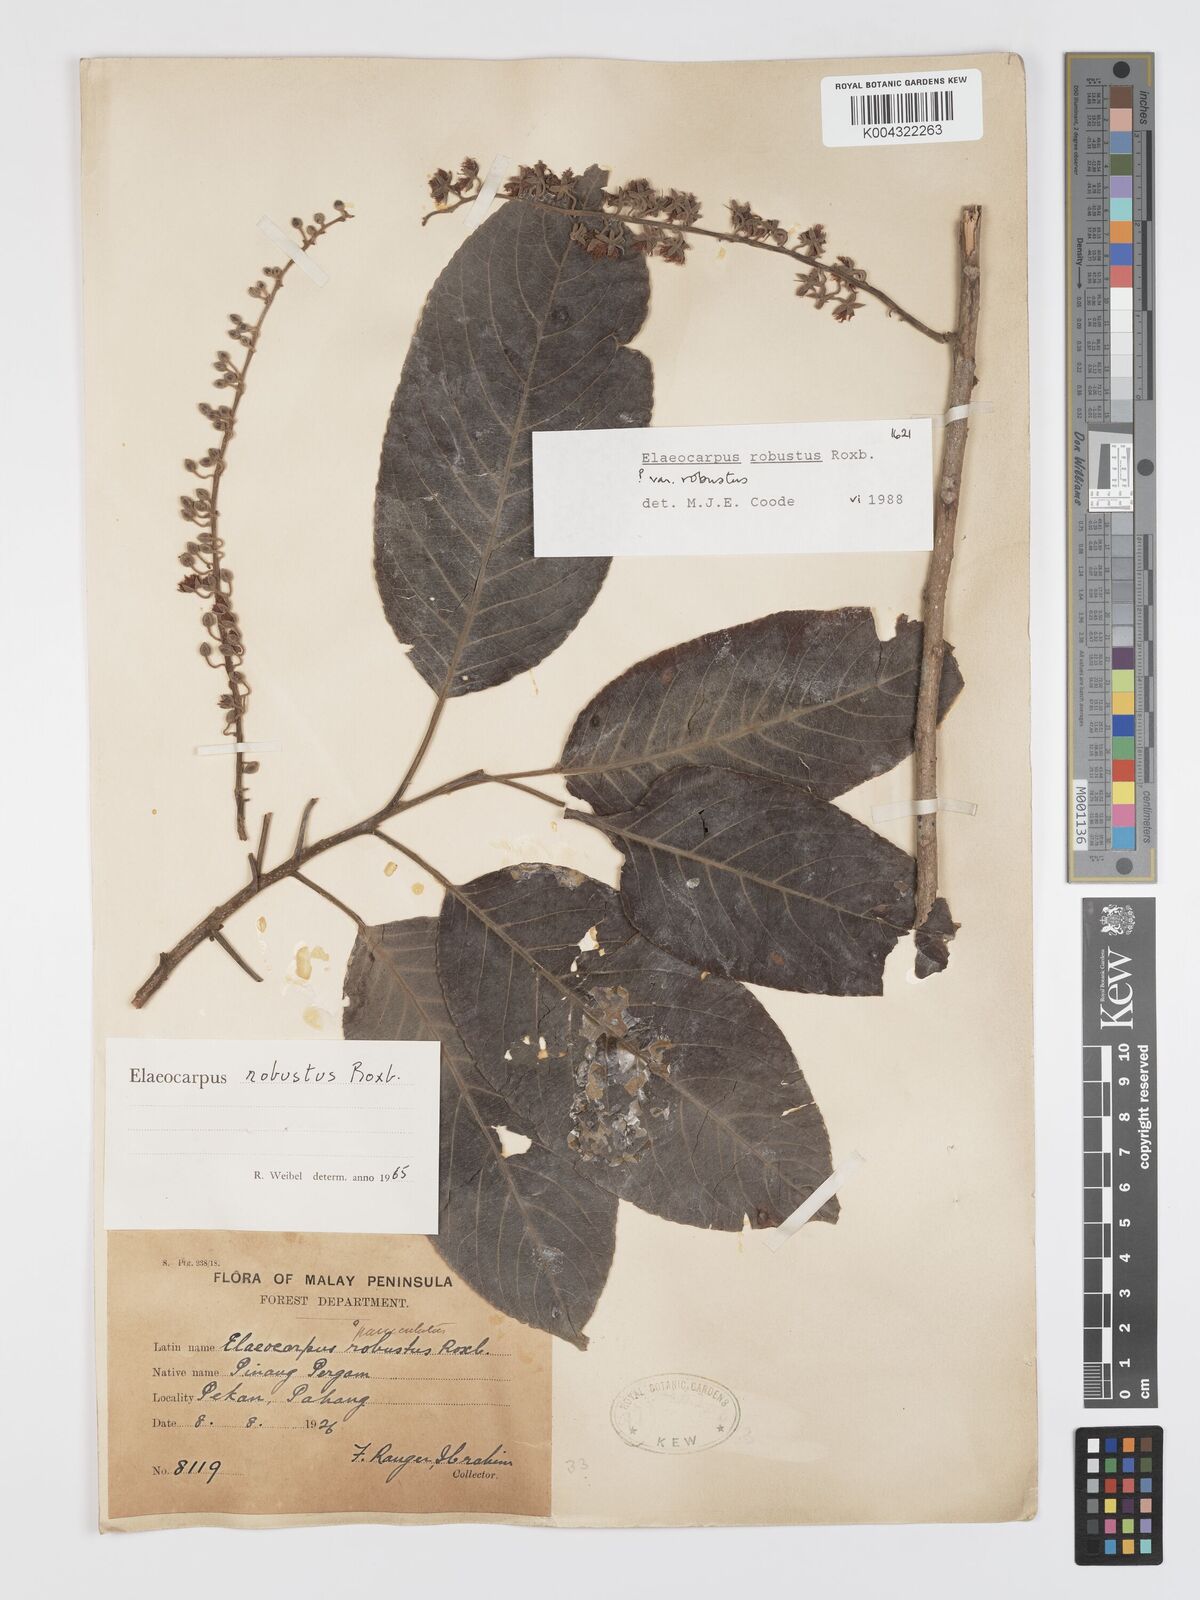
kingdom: Plantae
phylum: Tracheophyta
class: Magnoliopsida
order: Oxalidales
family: Elaeocarpaceae
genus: Elaeocarpus
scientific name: Elaeocarpus robustus
